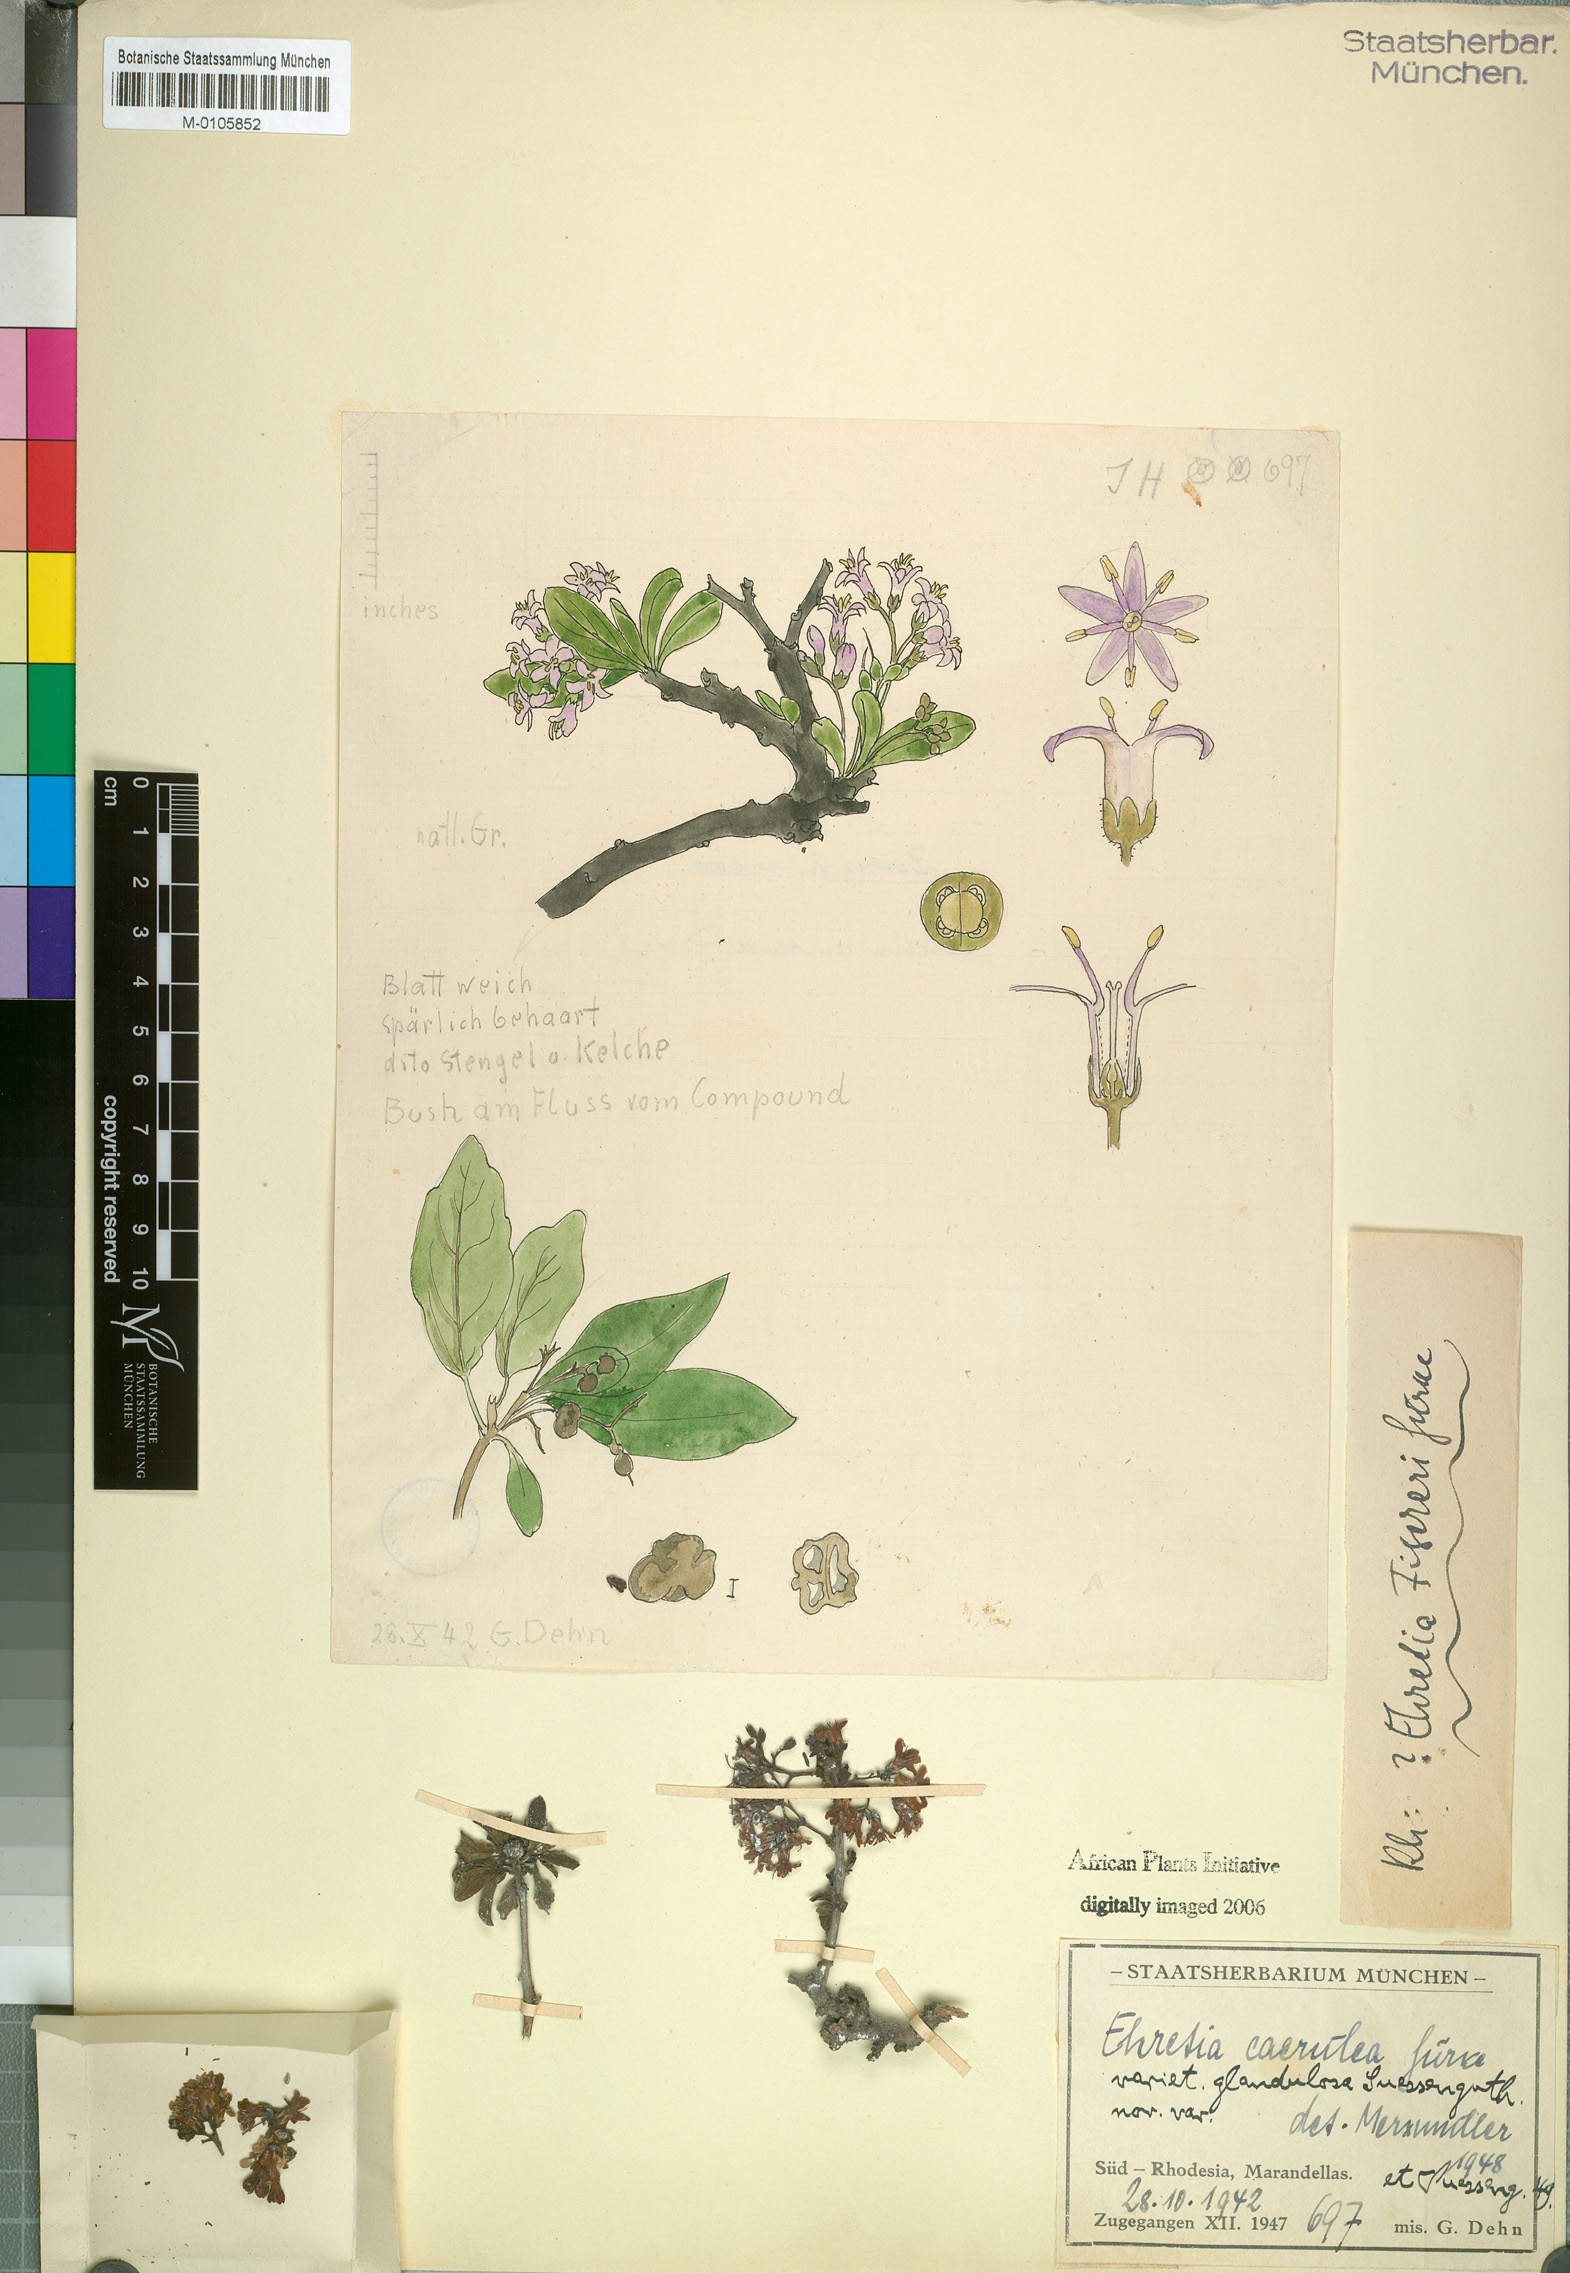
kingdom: Plantae
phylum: Tracheophyta
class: Magnoliopsida
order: Boraginales
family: Ehretiaceae
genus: Ehretia
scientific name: Ehretia obtusifolia
